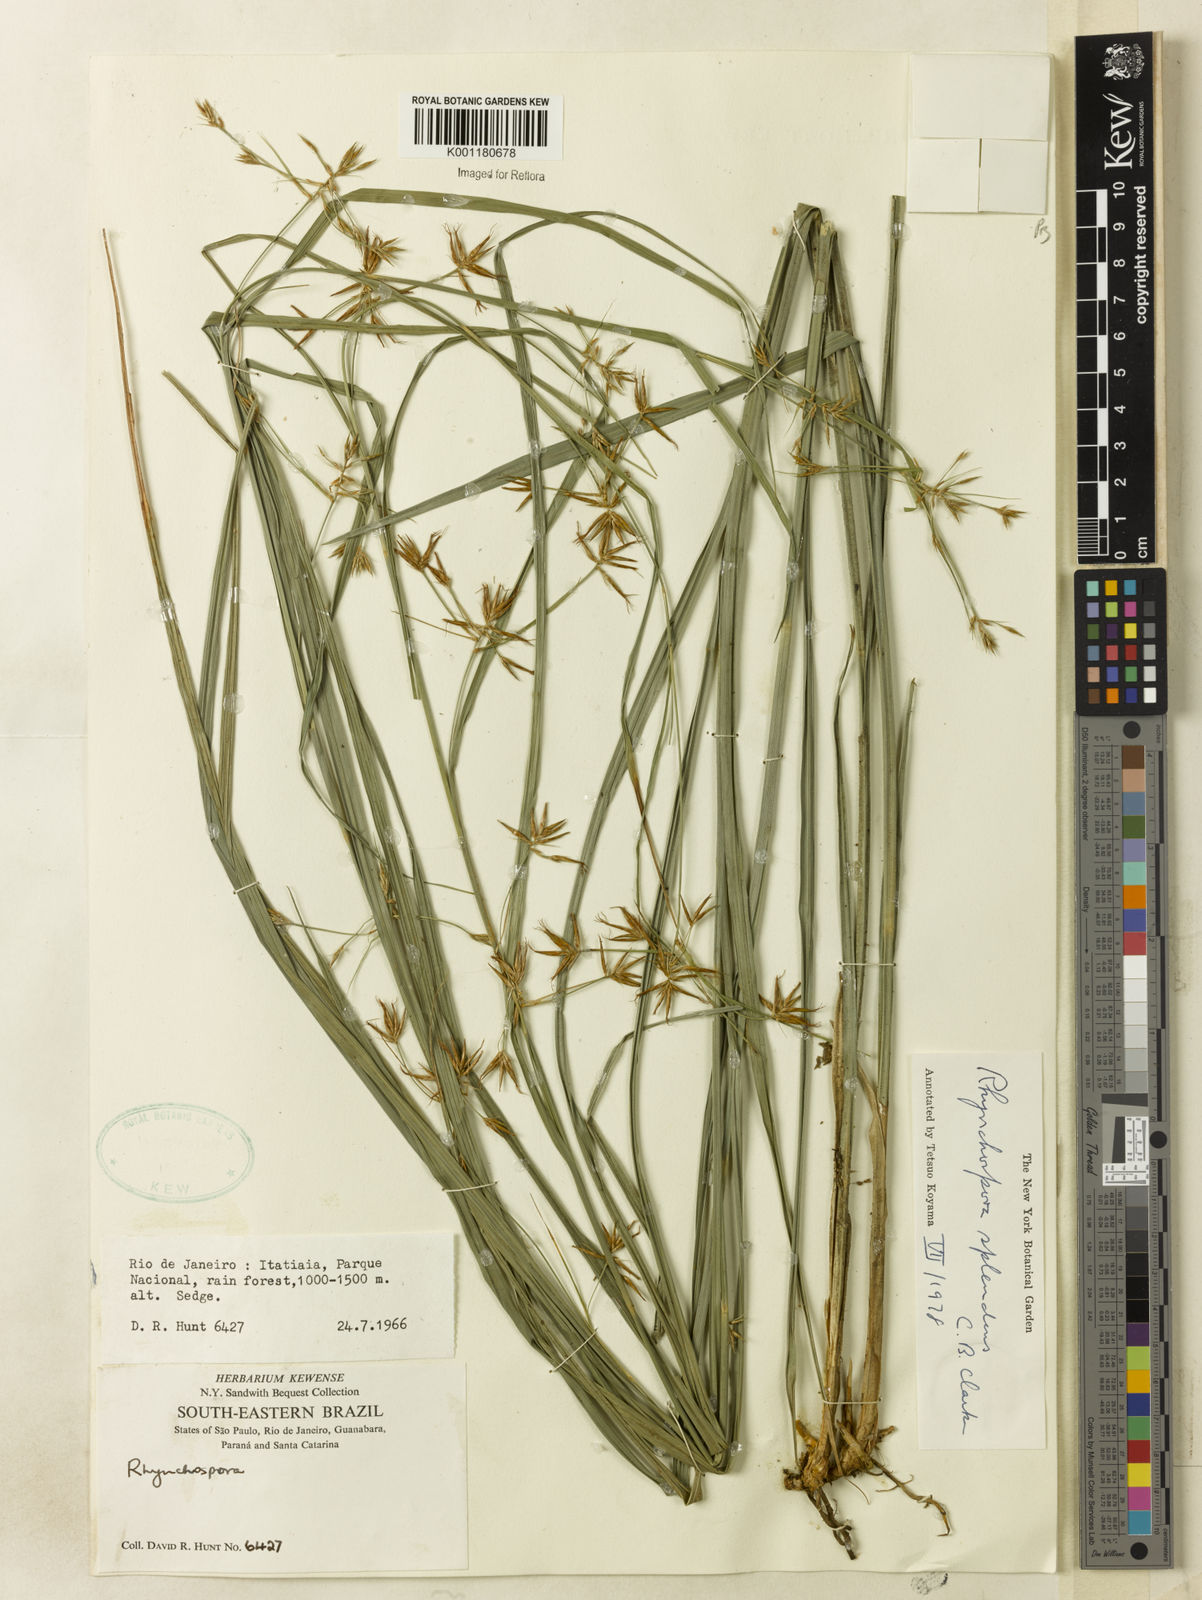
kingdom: Plantae
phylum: Tracheophyta
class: Liliopsida
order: Poales
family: Cyperaceae
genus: Rhynchospora
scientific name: Rhynchospora splendens
